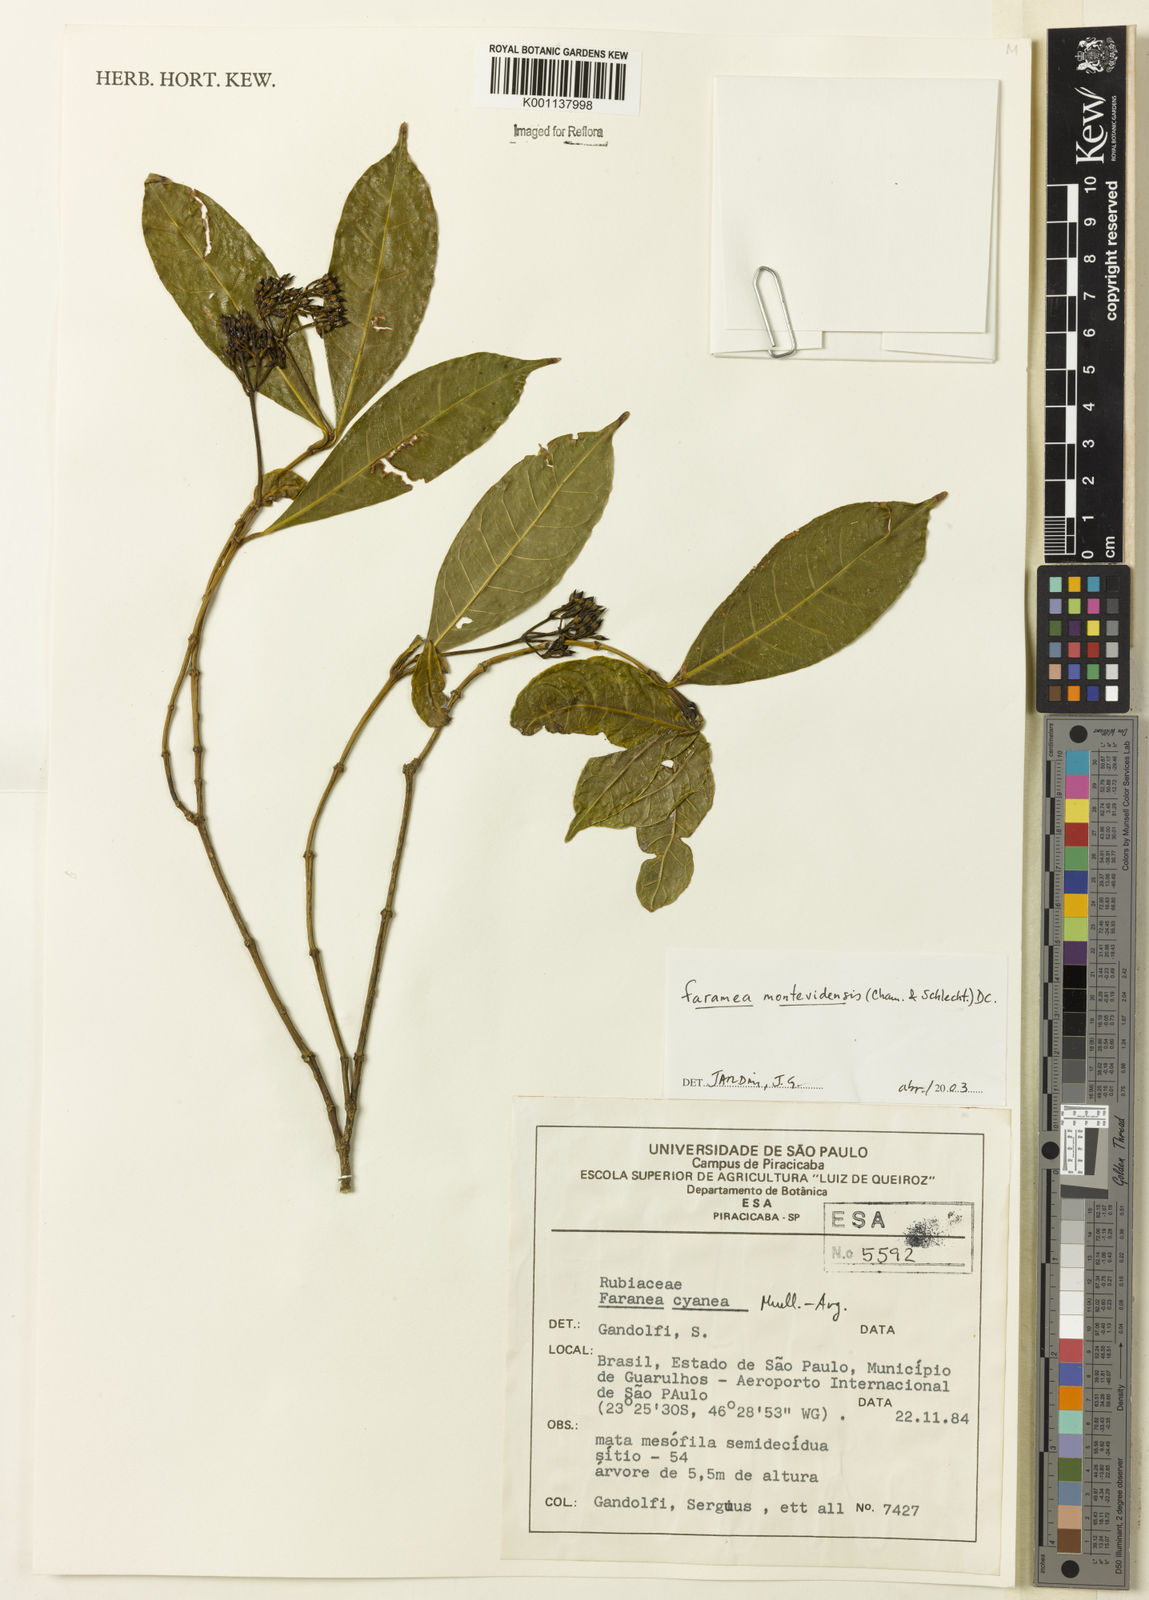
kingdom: Plantae
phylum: Tracheophyta
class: Magnoliopsida
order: Gentianales
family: Rubiaceae
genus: Faramea
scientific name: Faramea montevidensis
